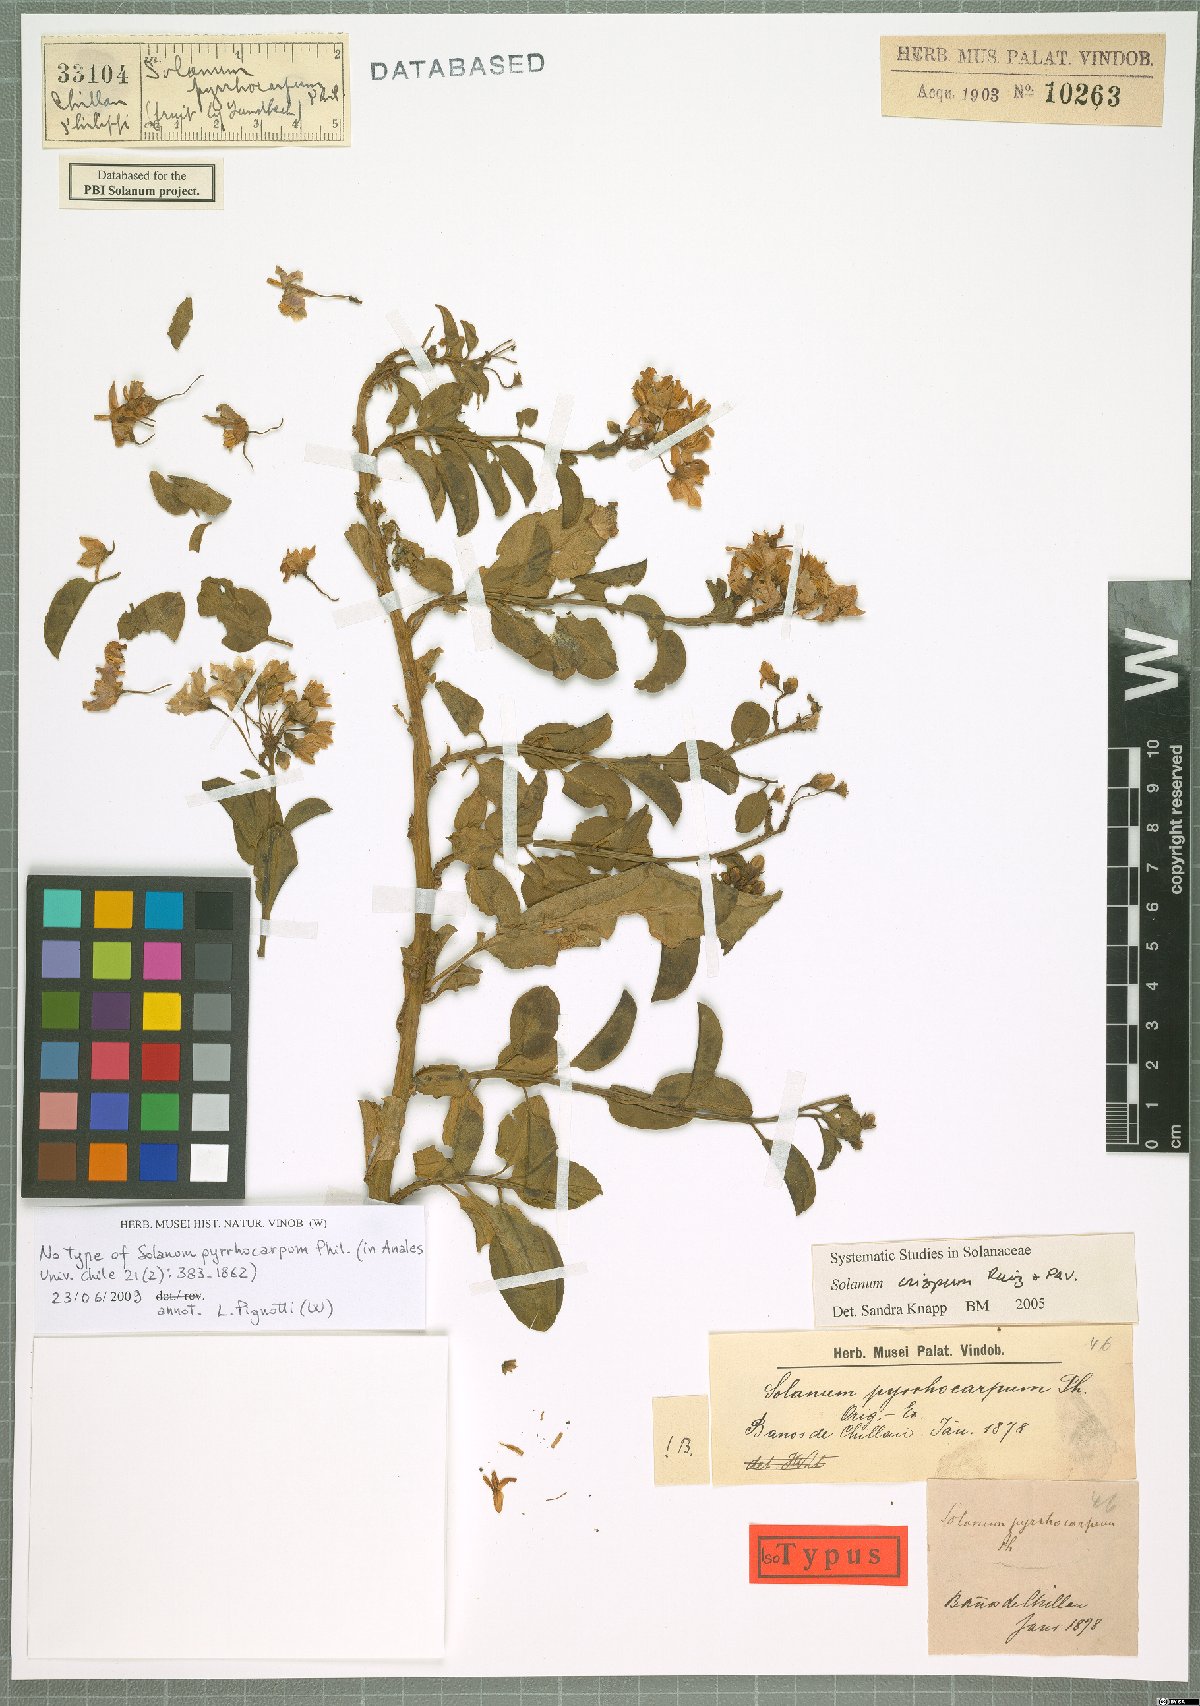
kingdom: Plantae
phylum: Tracheophyta
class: Magnoliopsida
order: Solanales
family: Solanaceae
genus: Solanum
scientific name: Solanum crispum
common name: Chilean nightshade
